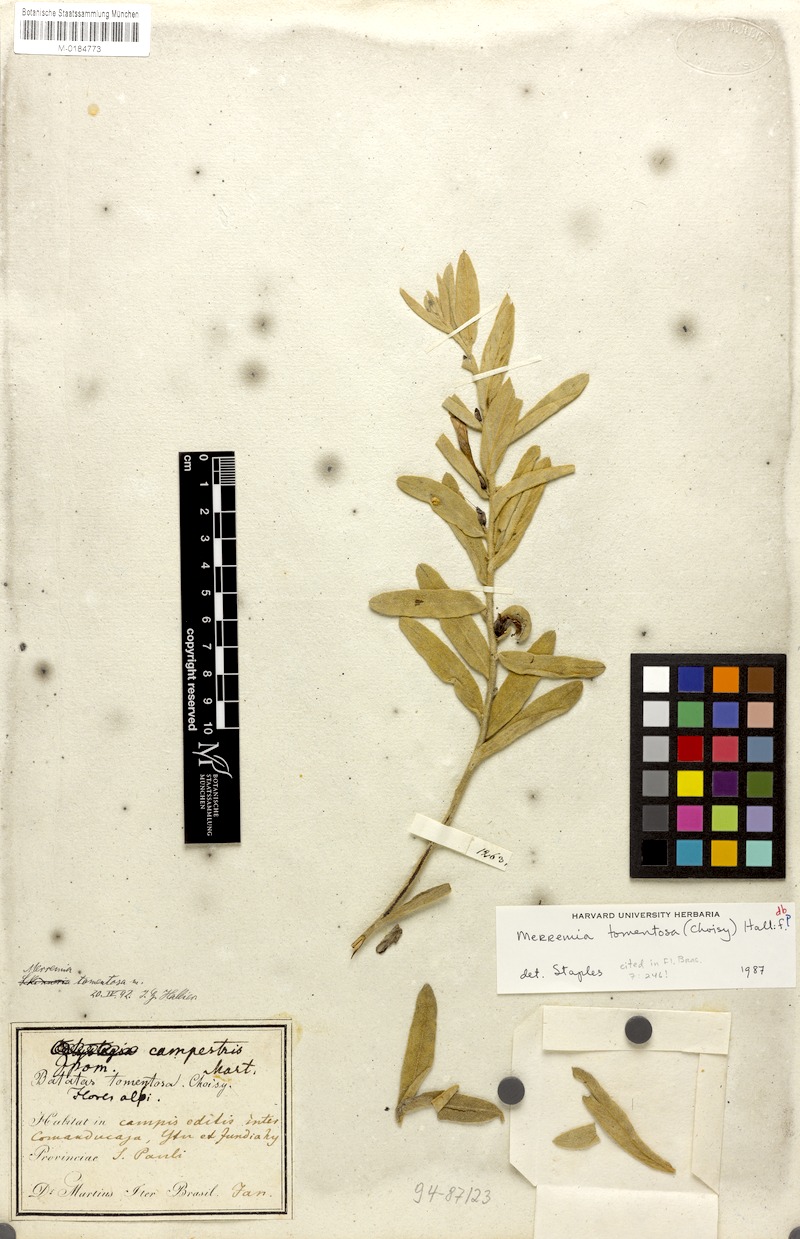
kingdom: Plantae
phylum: Tracheophyta
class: Magnoliopsida
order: Solanales
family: Convolvulaceae
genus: Distimake
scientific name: Distimake tomentosus
